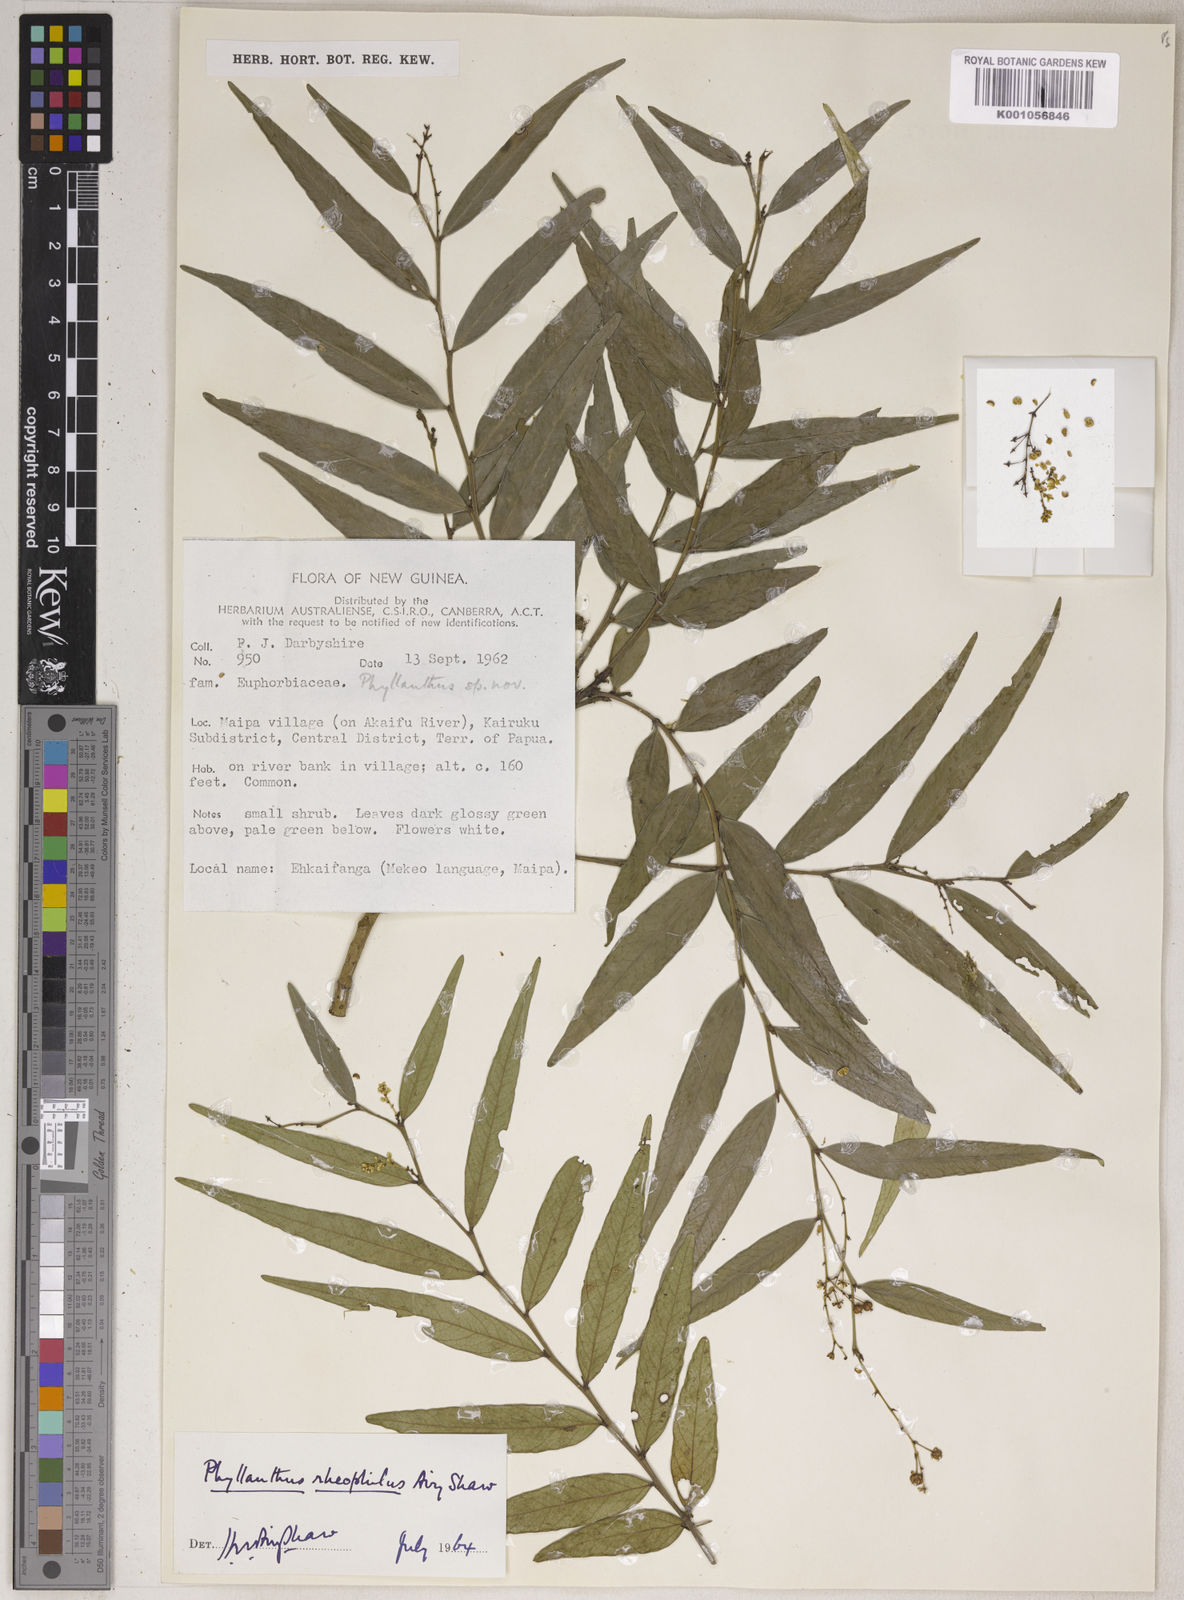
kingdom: Plantae
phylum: Tracheophyta
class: Magnoliopsida
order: Malpighiales
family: Phyllanthaceae
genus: Phyllanthus
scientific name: Phyllanthus rheophilus
